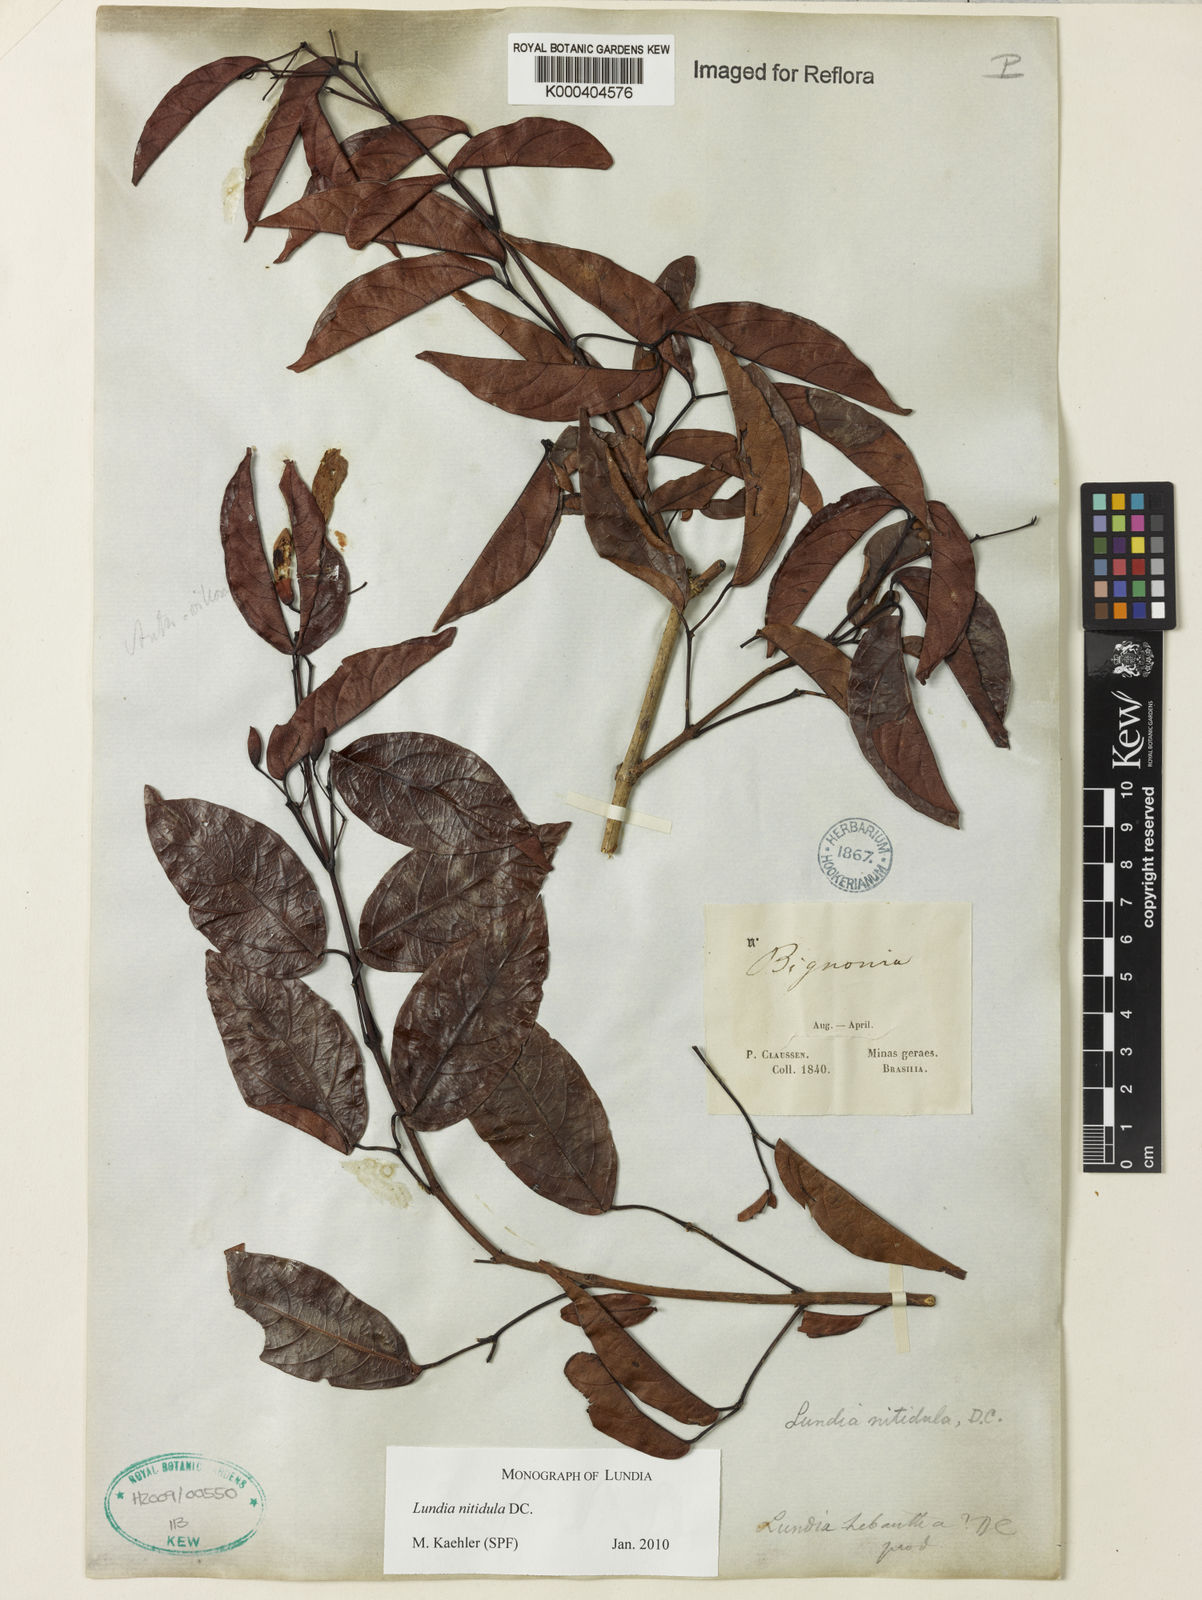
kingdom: Plantae
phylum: Tracheophyta
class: Magnoliopsida
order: Lamiales
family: Bignoniaceae
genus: Lundia
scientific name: Lundia virginalis
